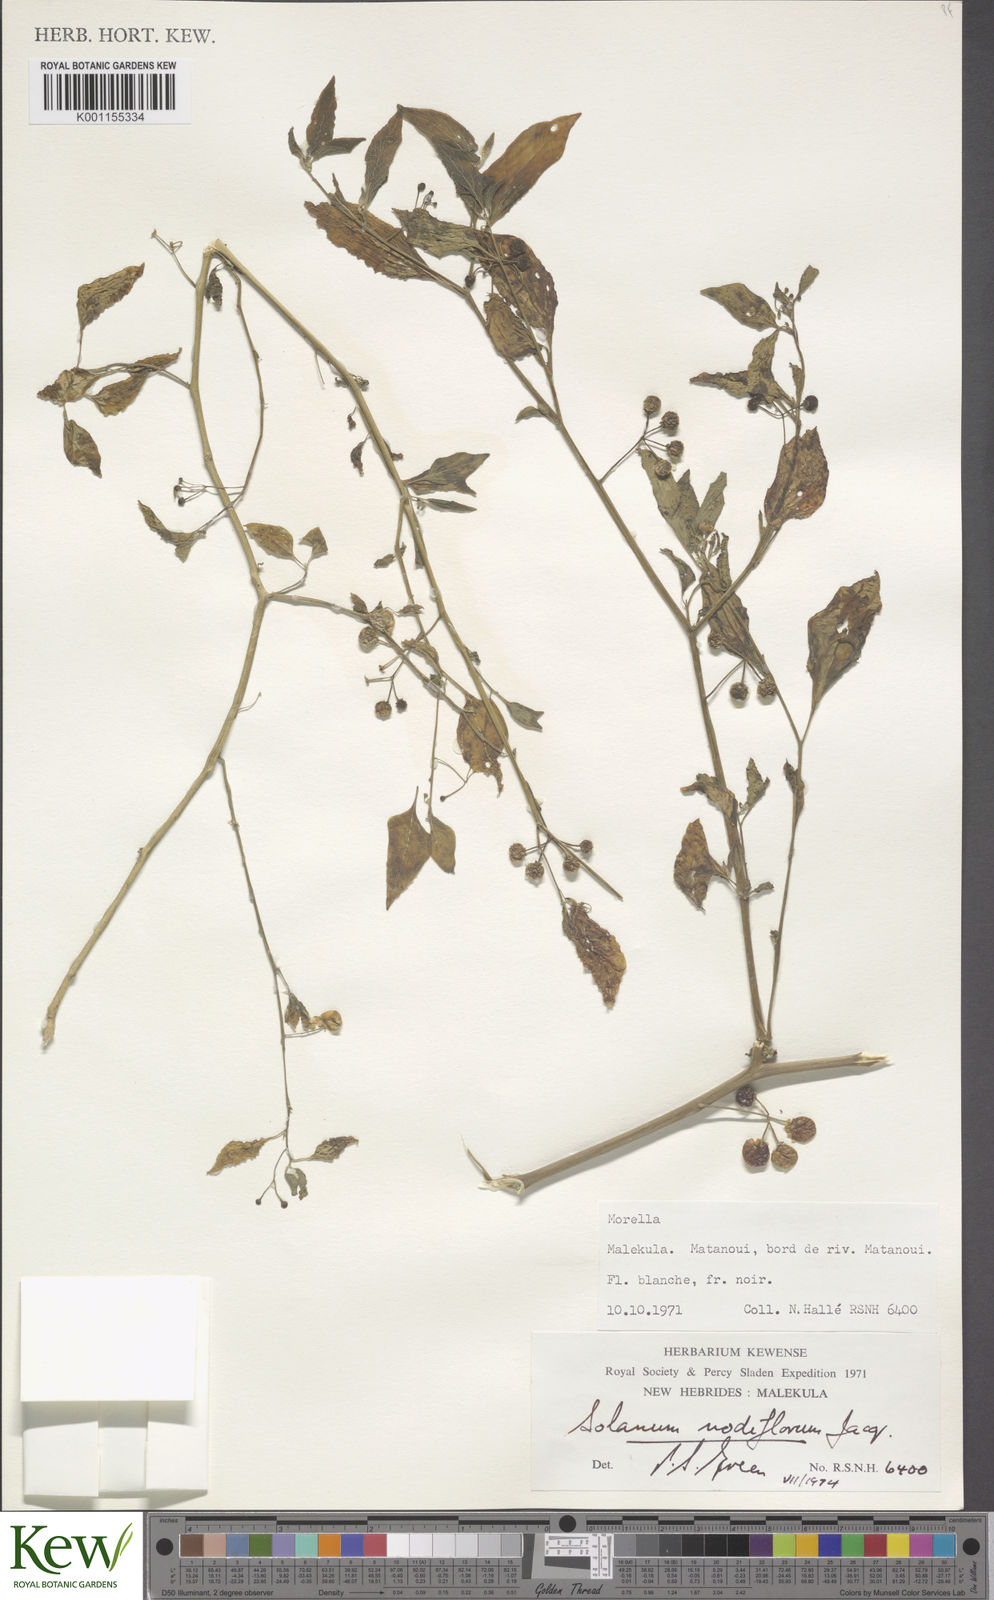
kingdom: Plantae
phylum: Tracheophyta
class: Magnoliopsida
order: Solanales
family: Solanaceae
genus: Solanum
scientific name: Solanum americanum
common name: American black nightshade
